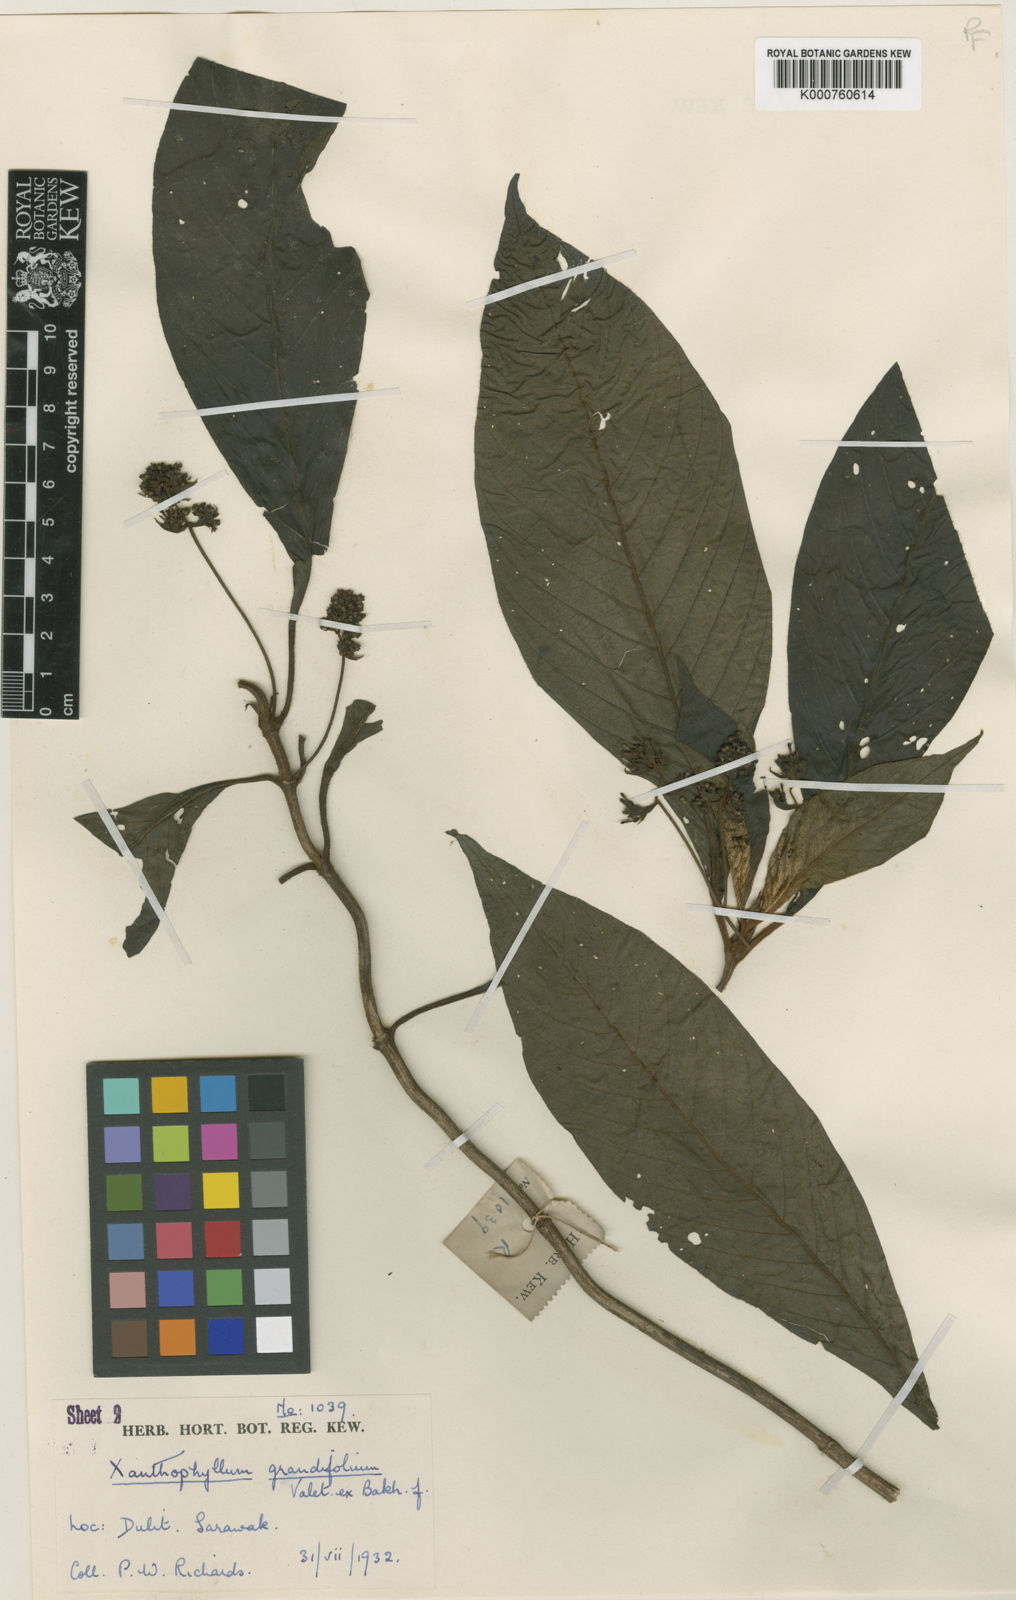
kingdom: Plantae
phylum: Tracheophyta
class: Magnoliopsida
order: Gentianales
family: Rubiaceae
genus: Xanthophytum
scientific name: Xanthophytum grandifolium
